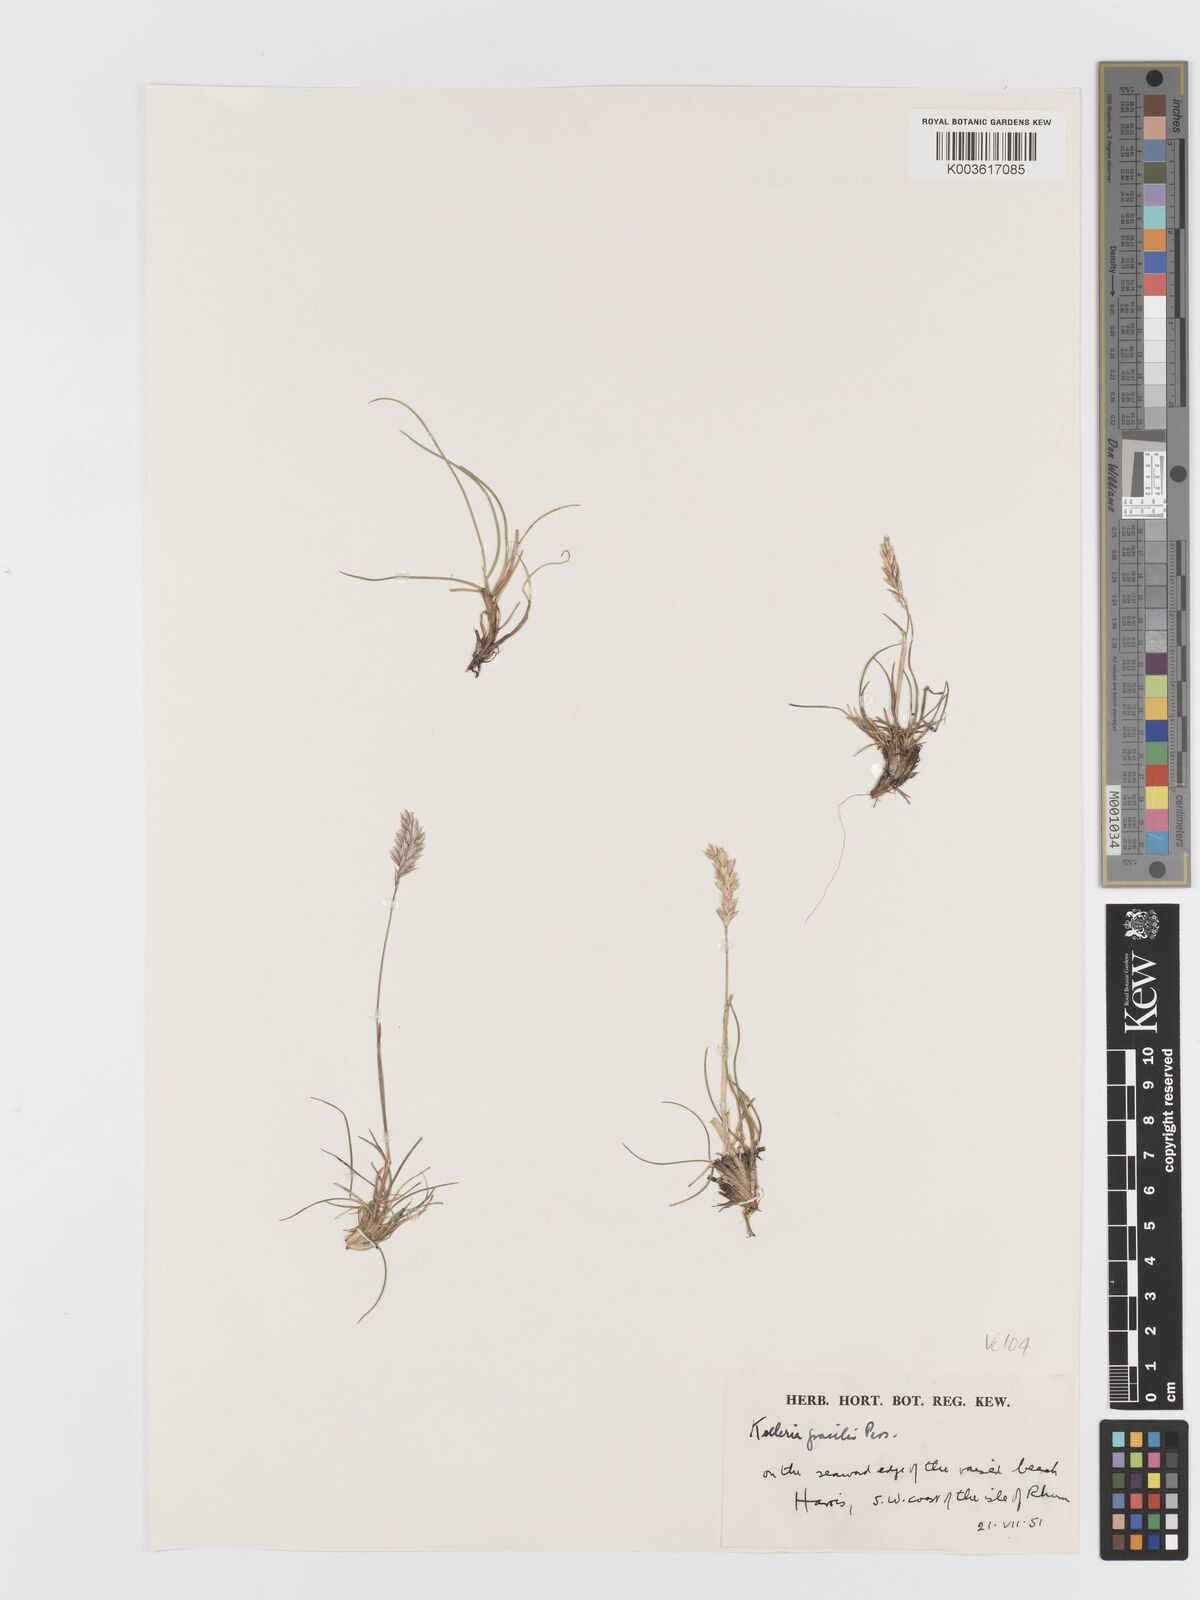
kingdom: Plantae
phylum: Tracheophyta
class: Liliopsida
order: Poales
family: Poaceae
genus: Koeleria
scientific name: Koeleria macrantha
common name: Crested hair-grass
